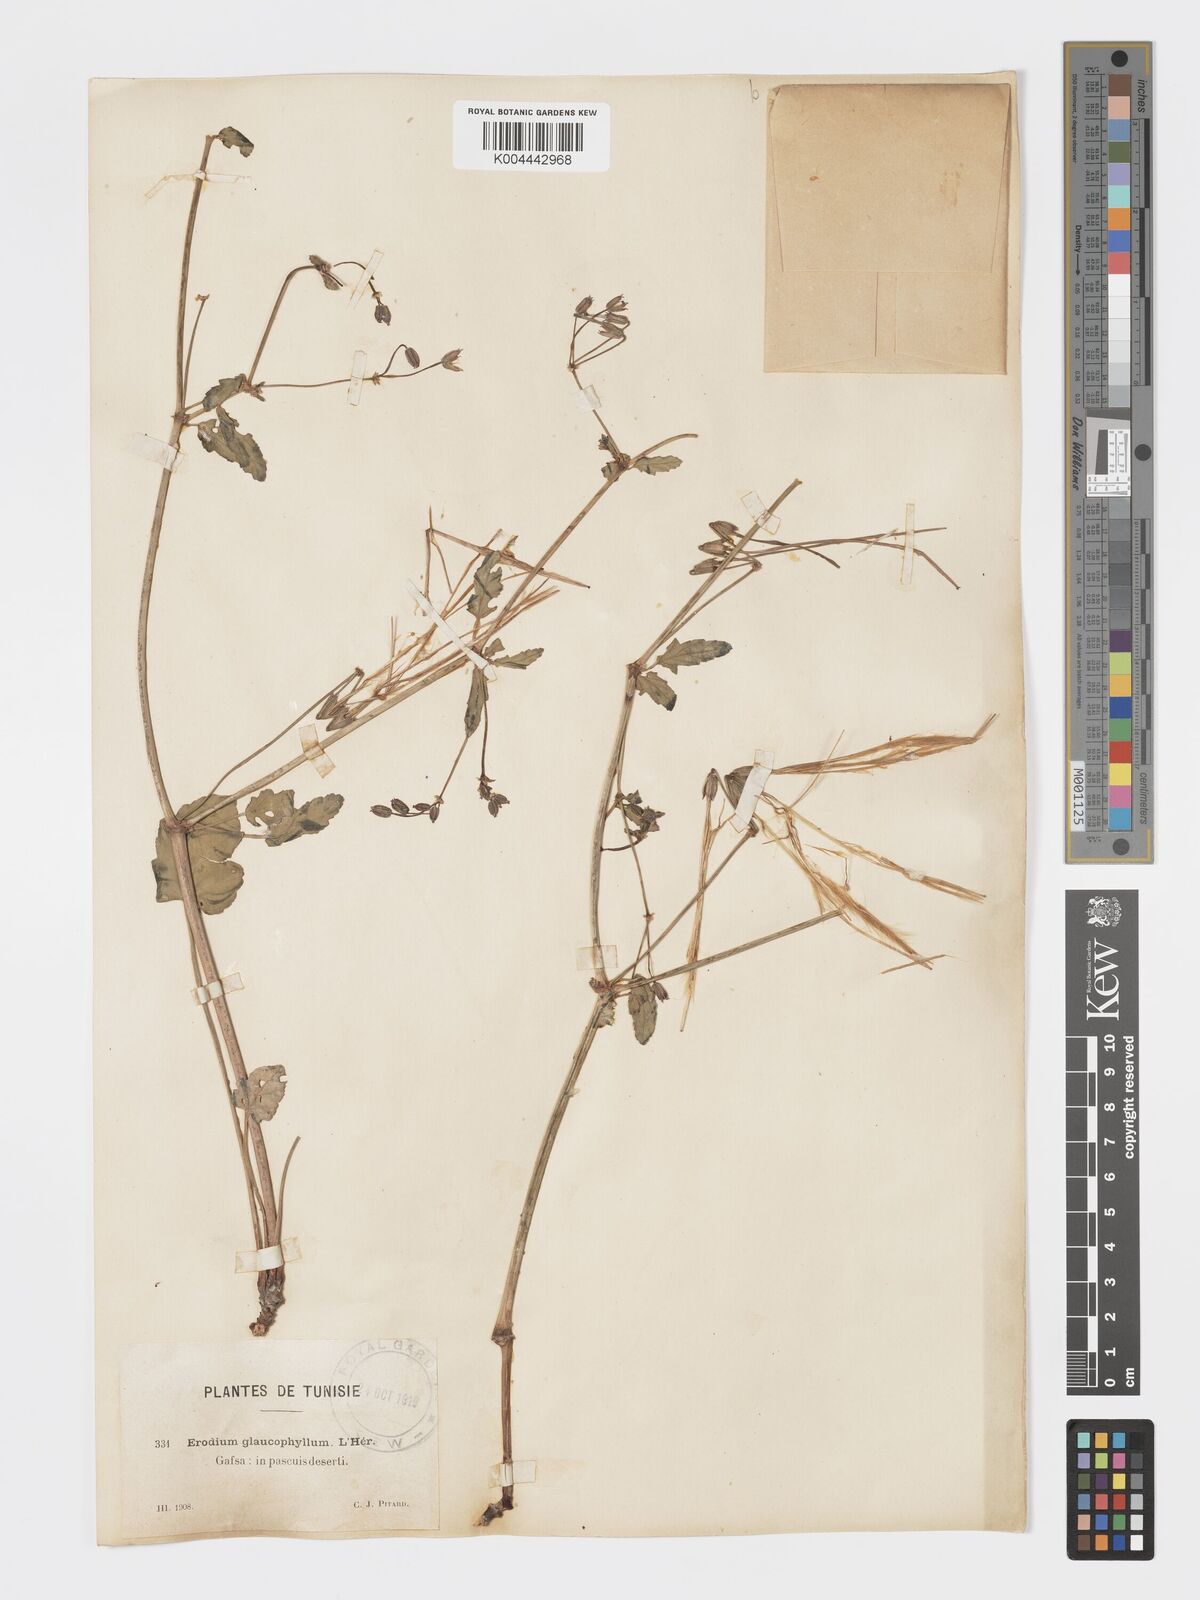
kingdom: Plantae
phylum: Tracheophyta
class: Magnoliopsida
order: Geraniales
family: Geraniaceae
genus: Erodium
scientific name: Erodium glaucophyllum
